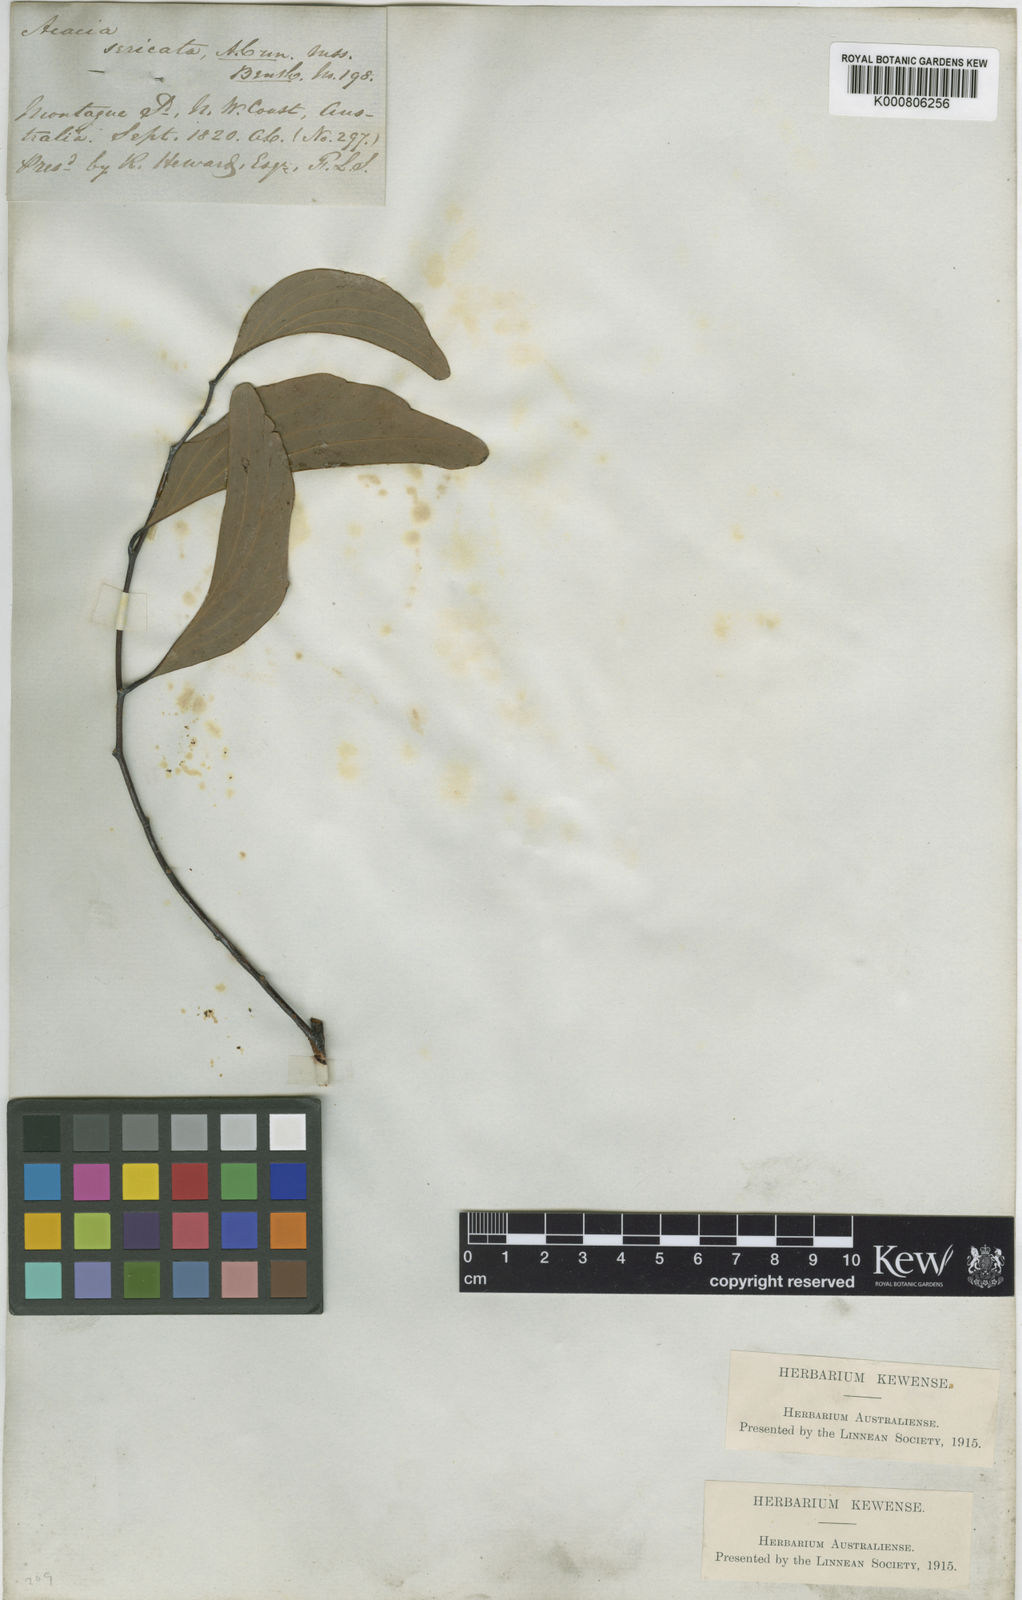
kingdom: Plantae
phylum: Tracheophyta
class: Magnoliopsida
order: Fabales
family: Fabaceae
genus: Acacia
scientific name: Acacia
